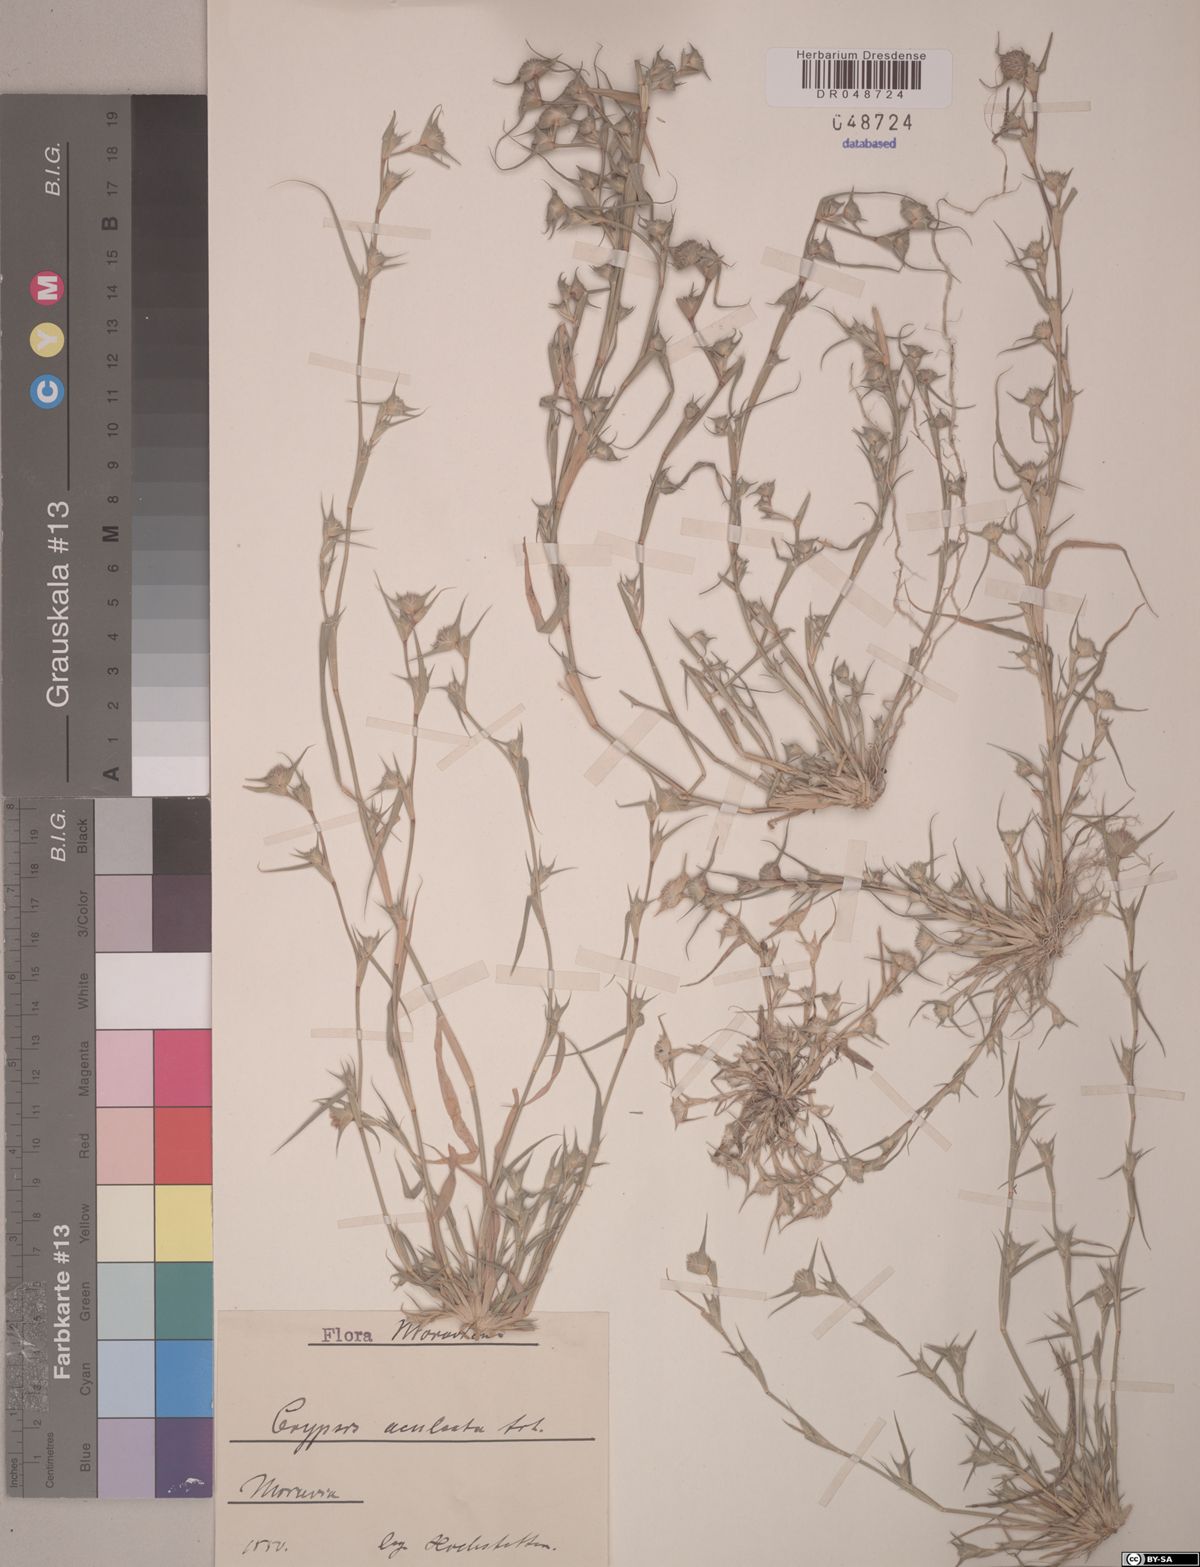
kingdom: Plantae
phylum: Tracheophyta
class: Liliopsida
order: Poales
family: Poaceae
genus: Sporobolus
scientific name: Sporobolus aculeatus
